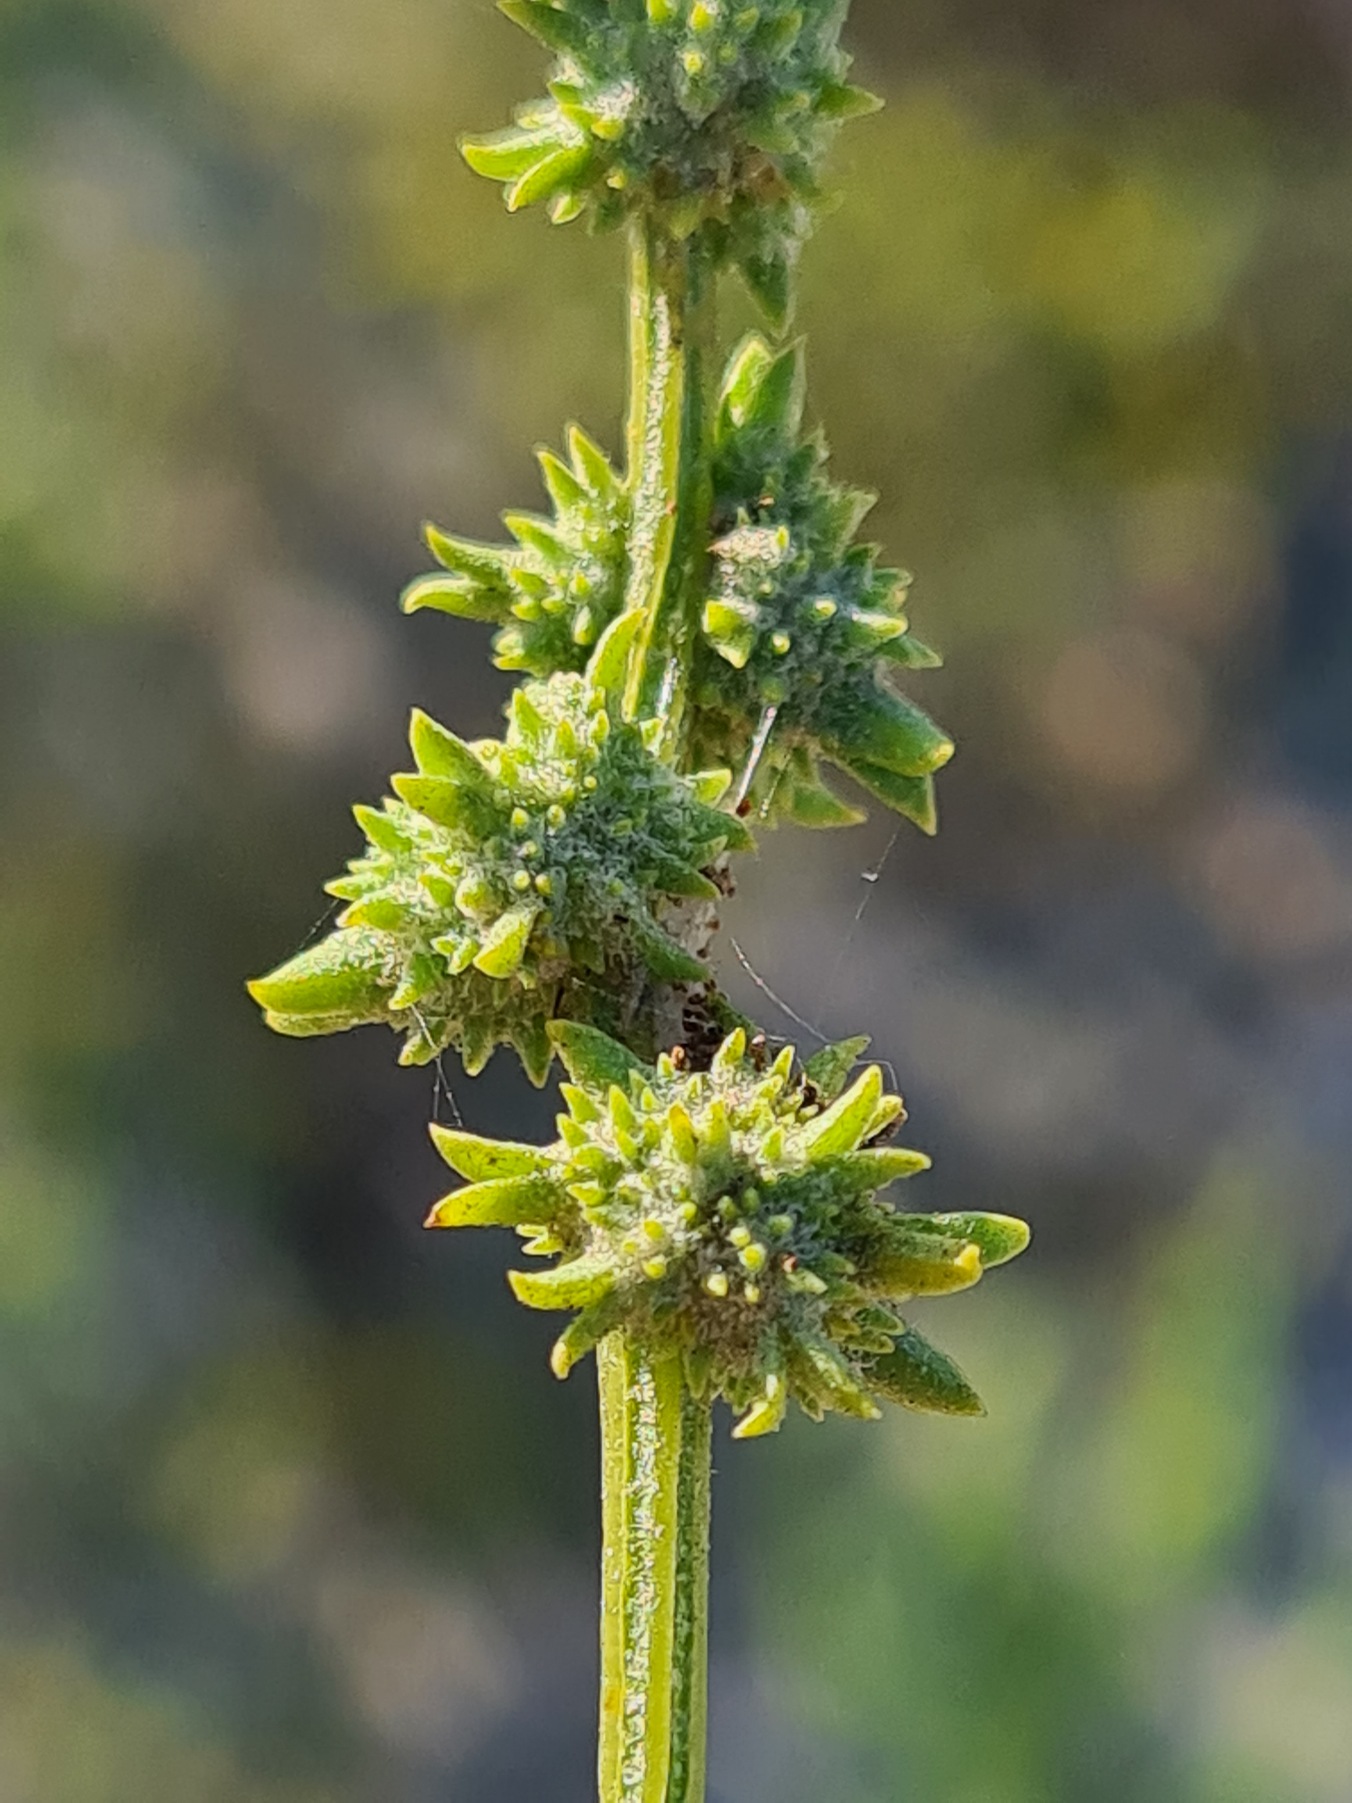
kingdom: Plantae
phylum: Tracheophyta
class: Magnoliopsida
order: Caryophyllales
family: Amaranthaceae
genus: Atriplex
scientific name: Atriplex littoralis
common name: Strand-mælde
